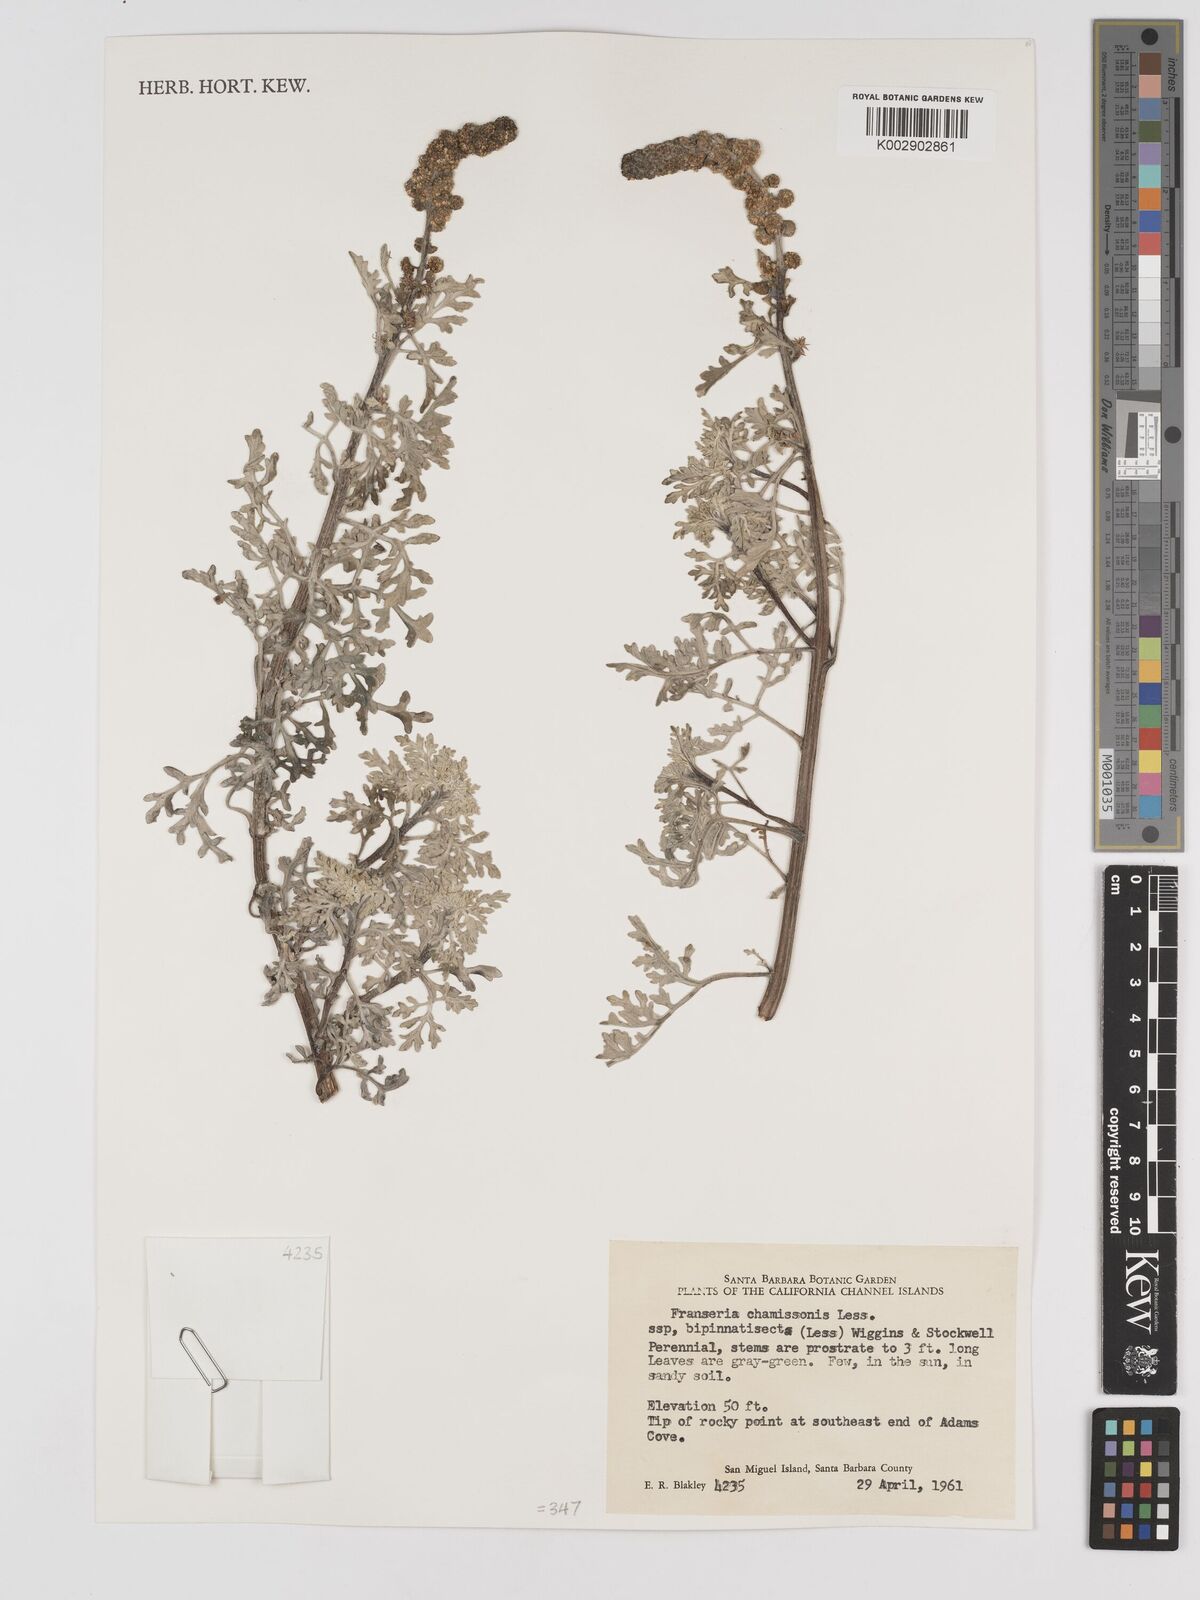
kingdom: Plantae
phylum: Tracheophyta
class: Magnoliopsida
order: Asterales
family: Asteraceae
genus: Ambrosia
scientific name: Ambrosia chamissonis
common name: Beachbur
